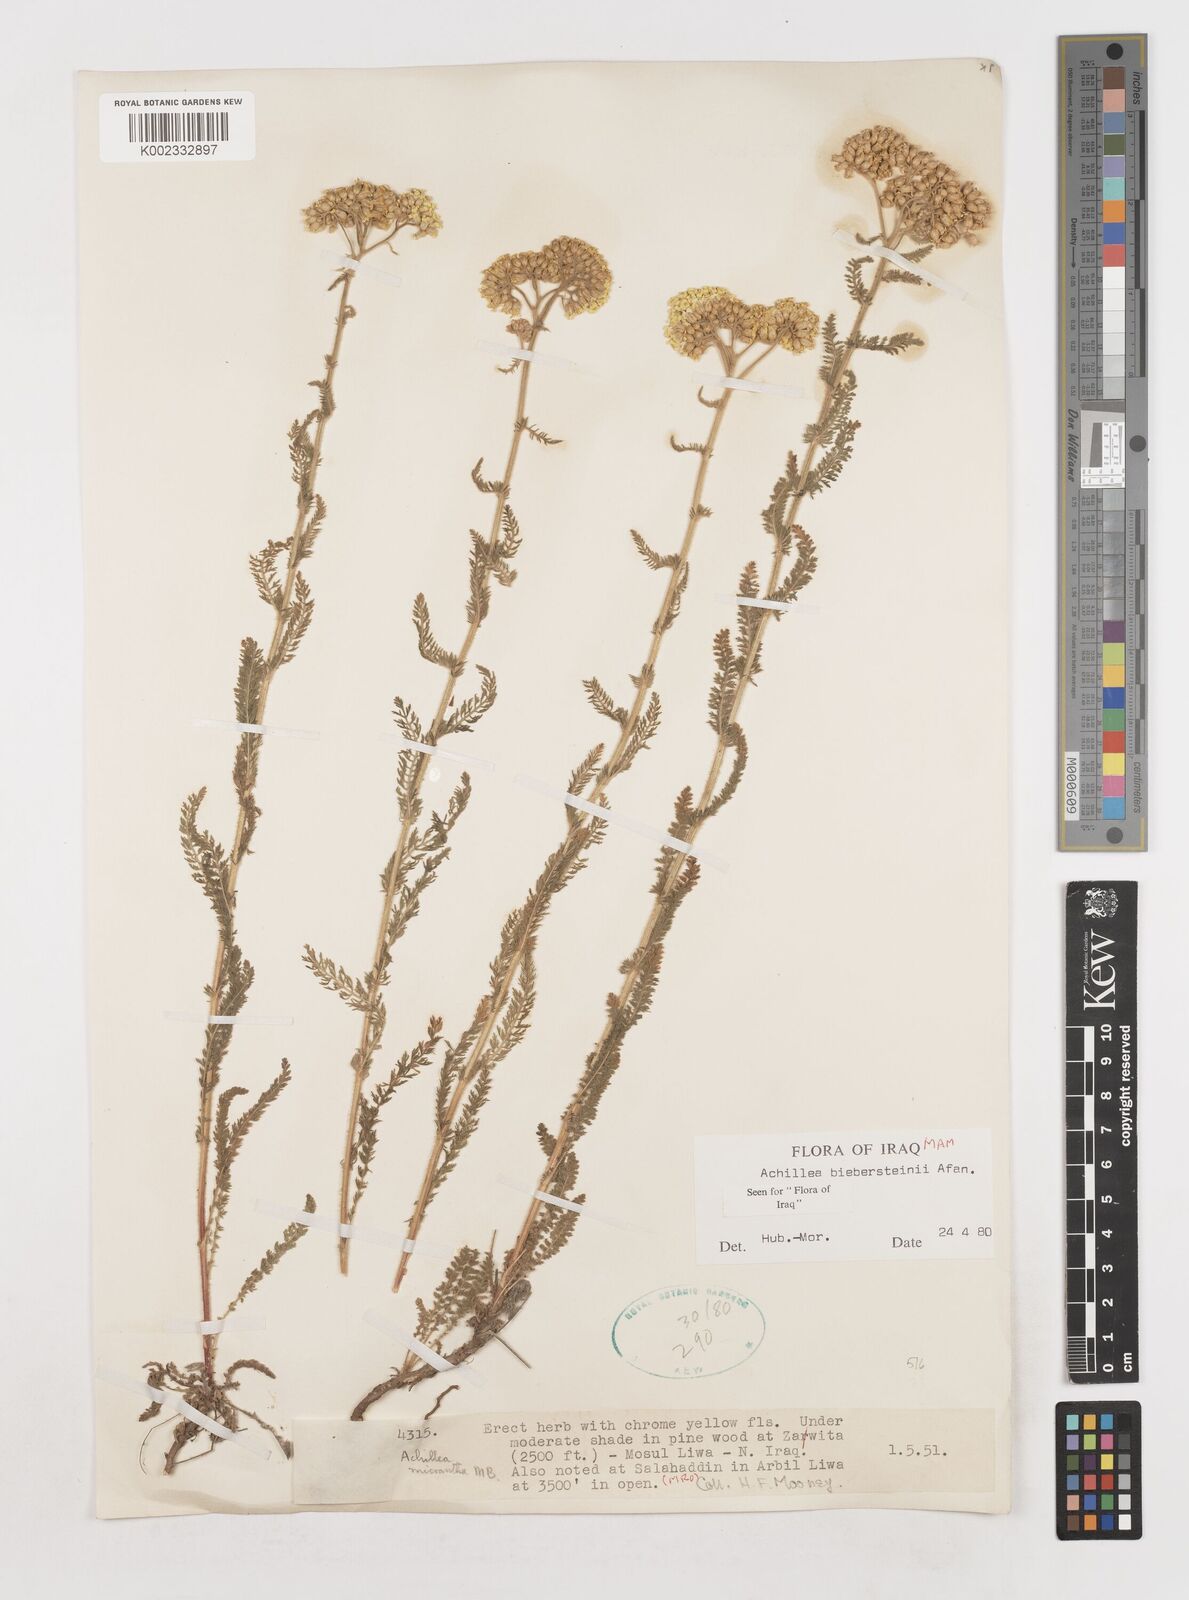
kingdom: Plantae
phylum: Tracheophyta
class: Magnoliopsida
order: Asterales
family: Asteraceae
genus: Achillea
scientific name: Achillea arabica
